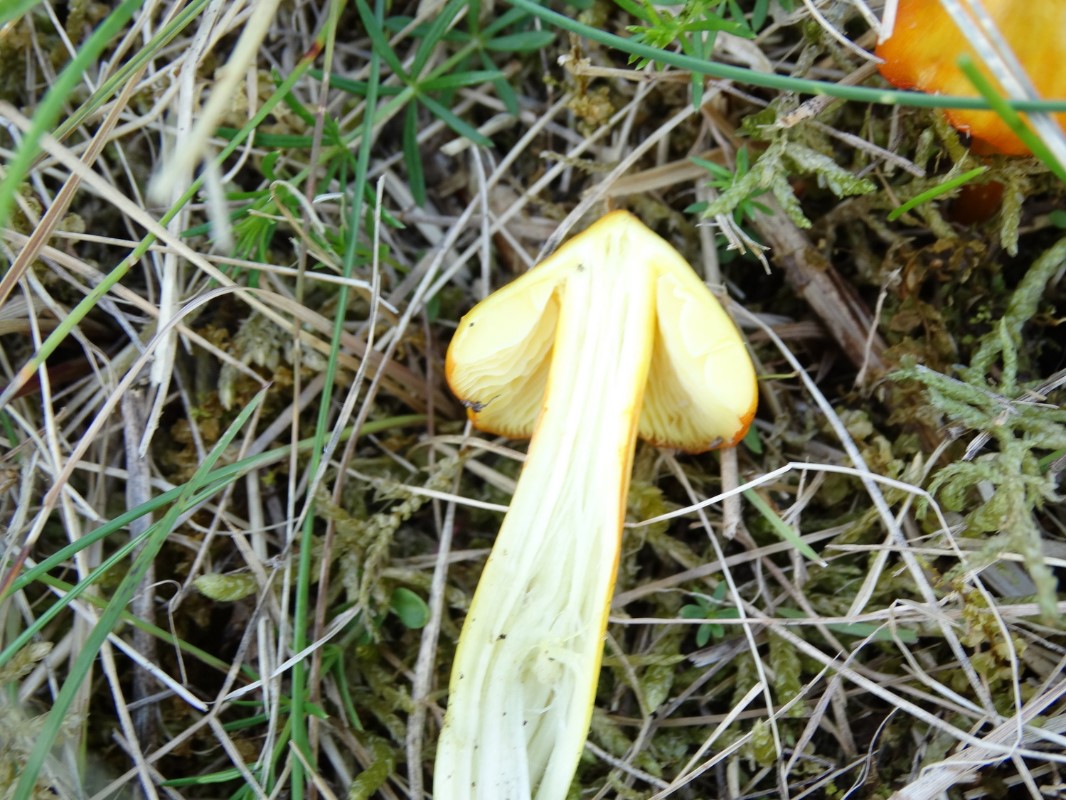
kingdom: Fungi
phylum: Basidiomycota
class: Agaricomycetes
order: Agaricales
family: Hygrophoraceae
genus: Hygrocybe
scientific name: Hygrocybe acutoconica
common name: spidspuklet vokshat
